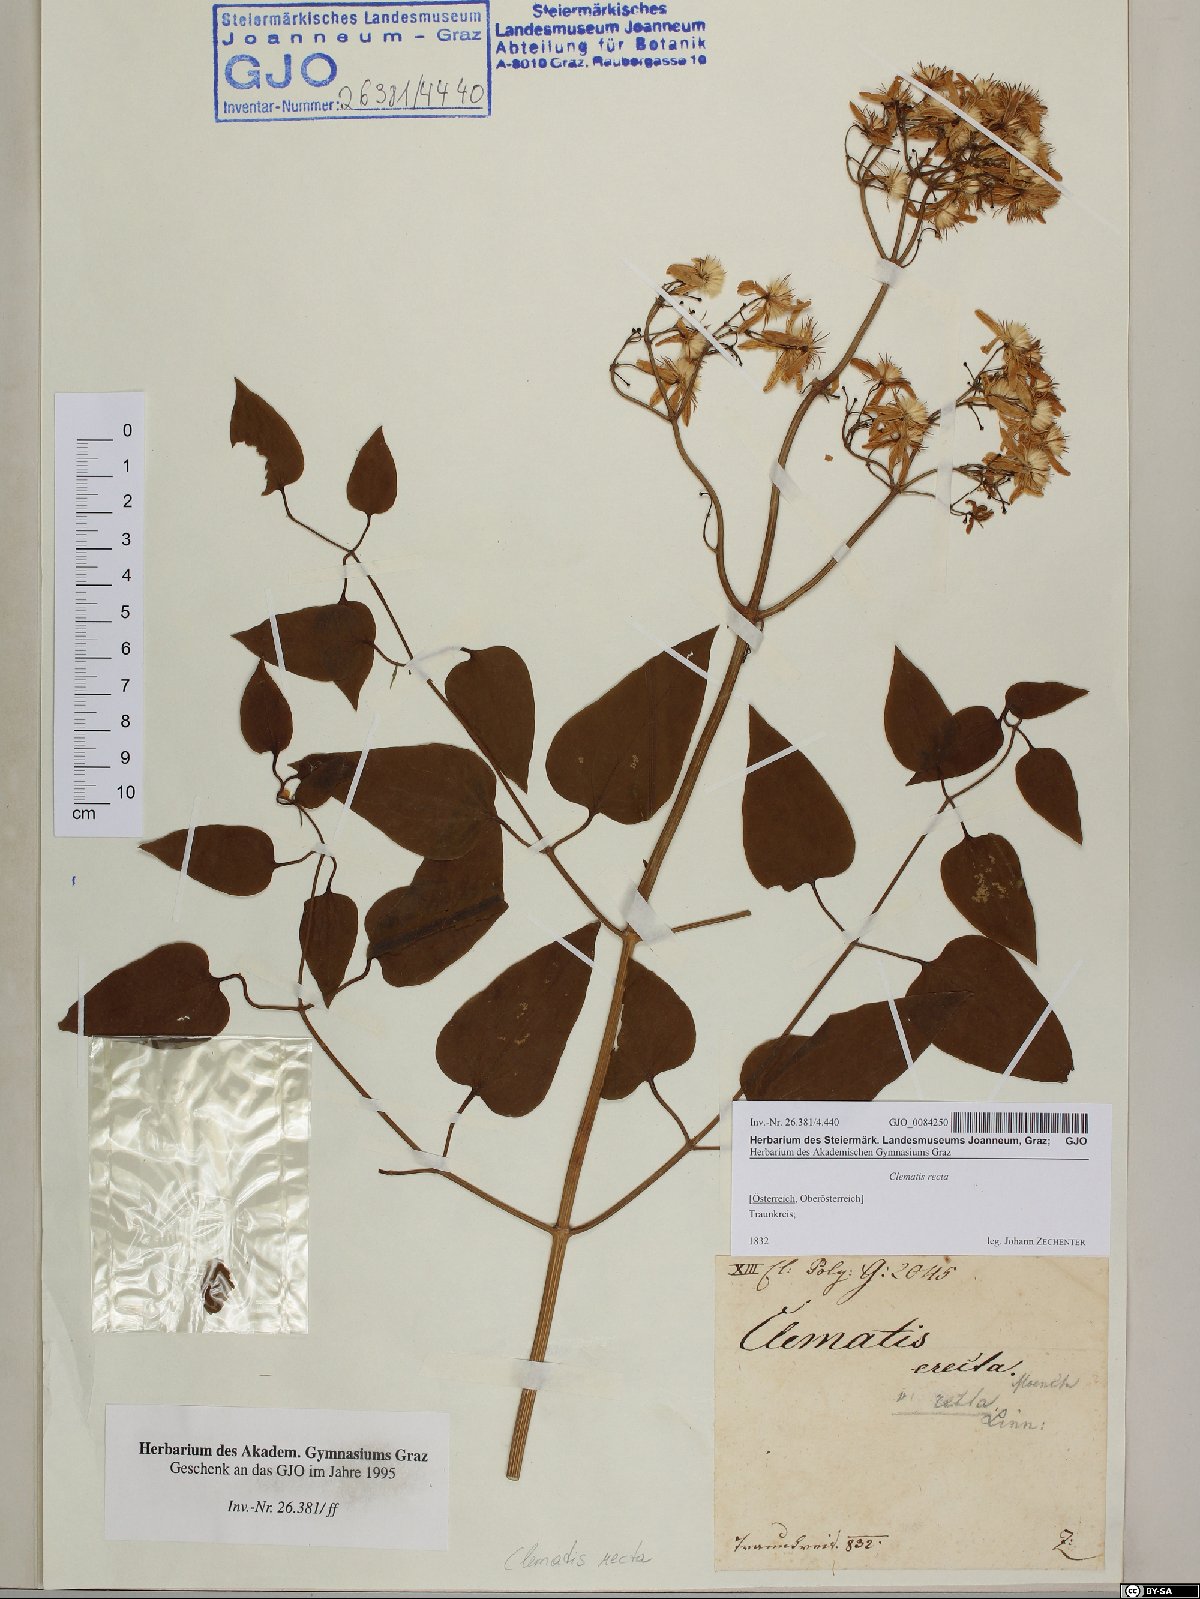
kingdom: Plantae
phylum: Tracheophyta
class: Magnoliopsida
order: Ranunculales
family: Ranunculaceae
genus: Clematis
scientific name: Clematis recta
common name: Ground clematis
